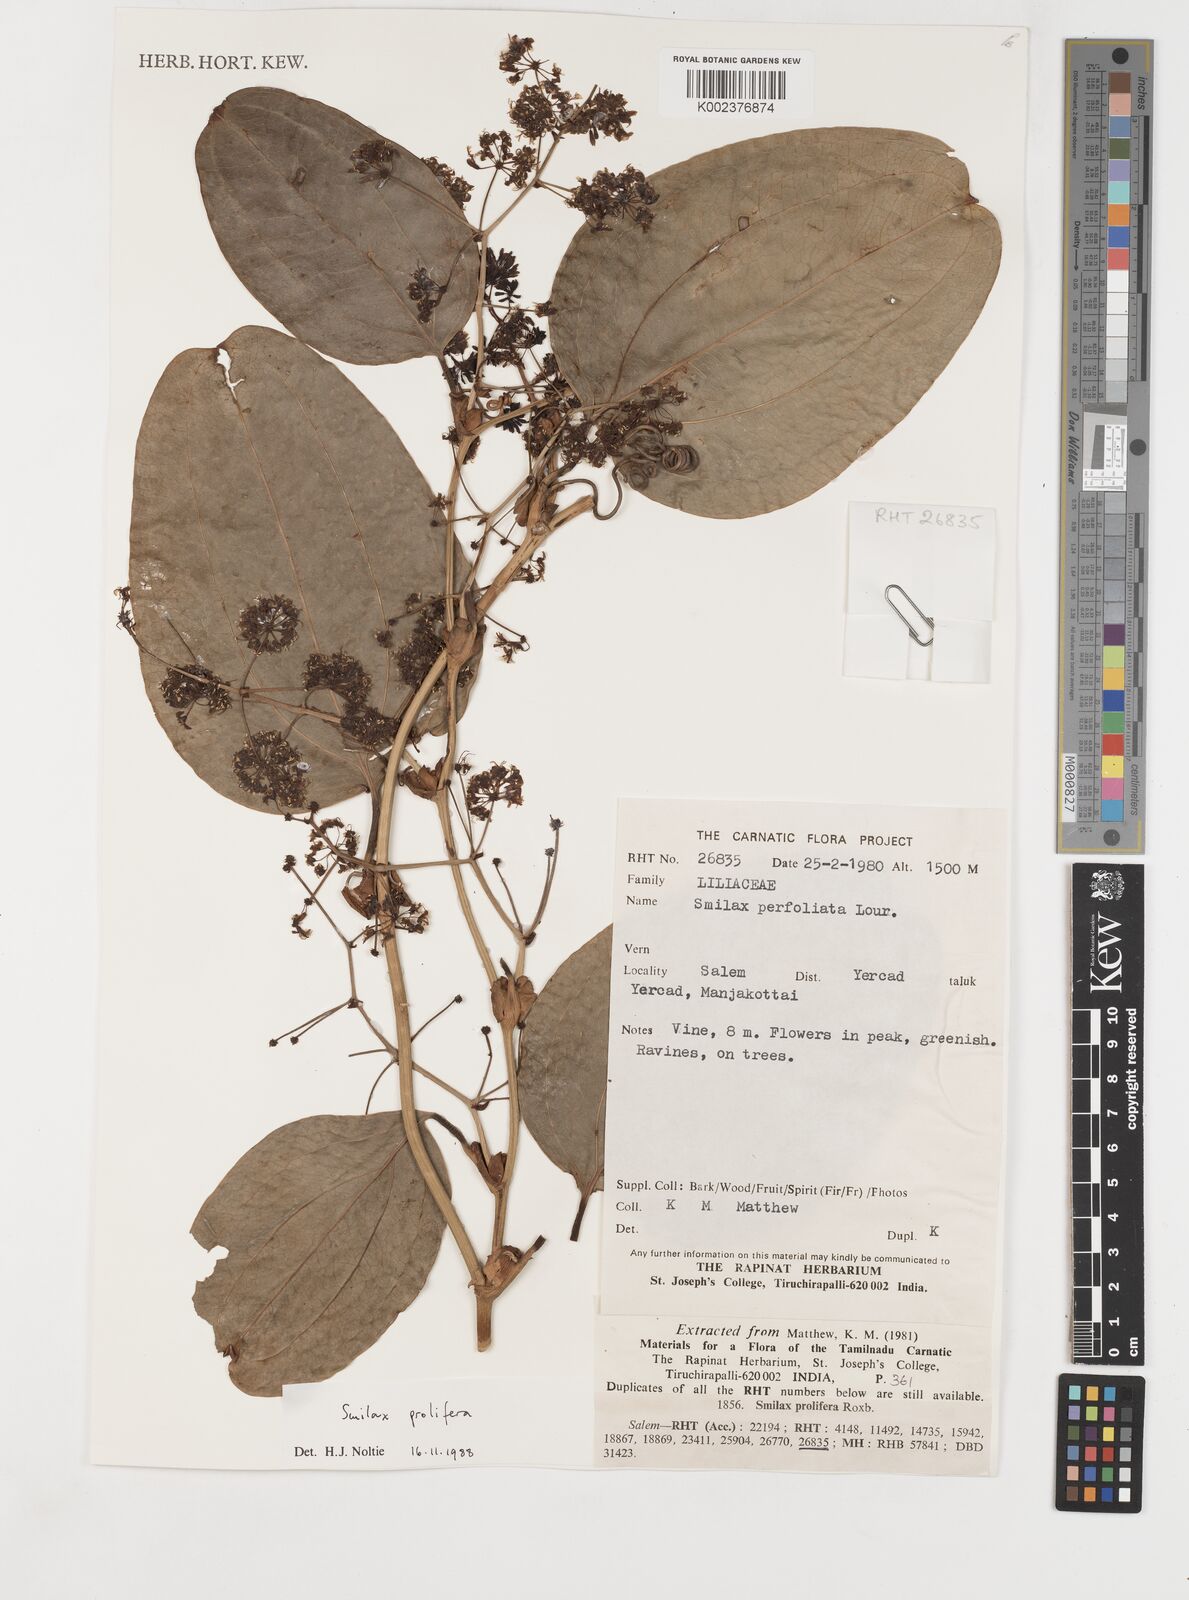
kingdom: Plantae
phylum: Tracheophyta
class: Liliopsida
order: Liliales
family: Smilacaceae
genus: Smilax
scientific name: Smilax prolifera
